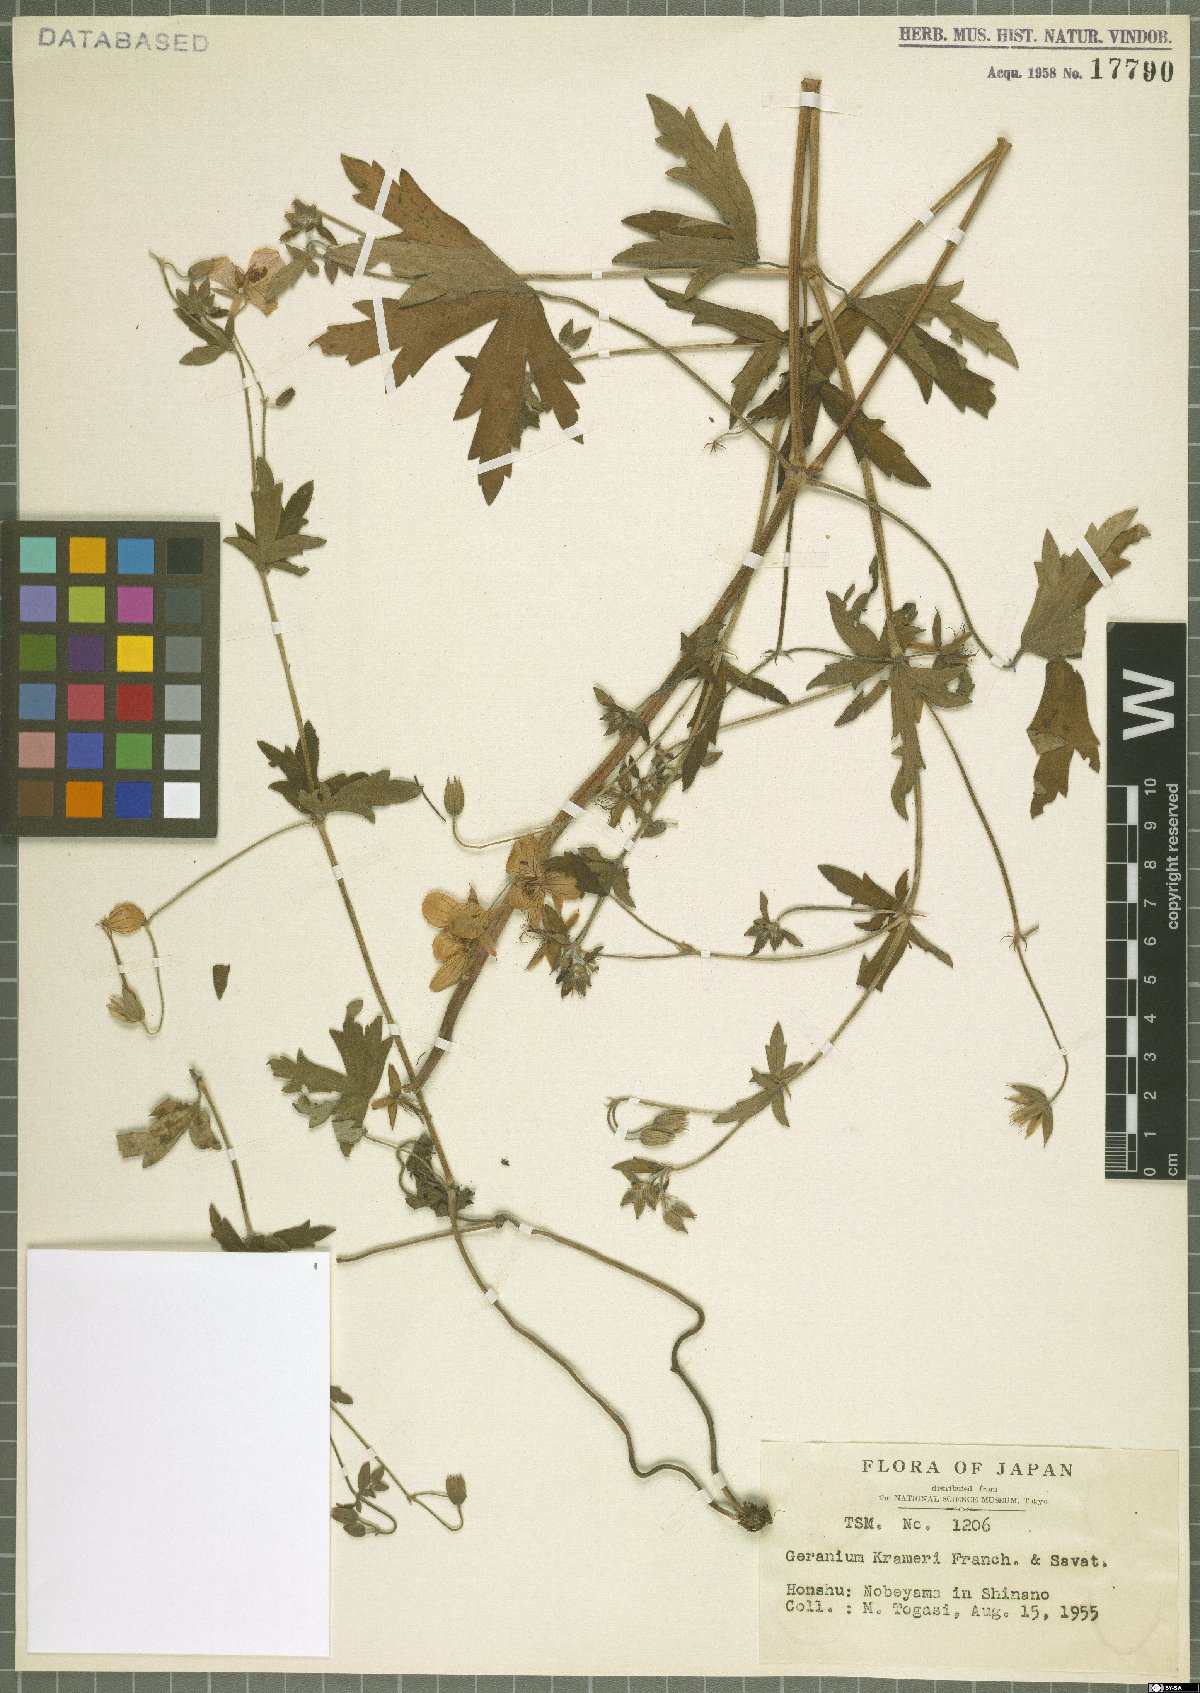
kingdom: Plantae
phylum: Tracheophyta
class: Magnoliopsida
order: Geraniales
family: Geraniaceae
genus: Geranium
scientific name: Geranium krameri
